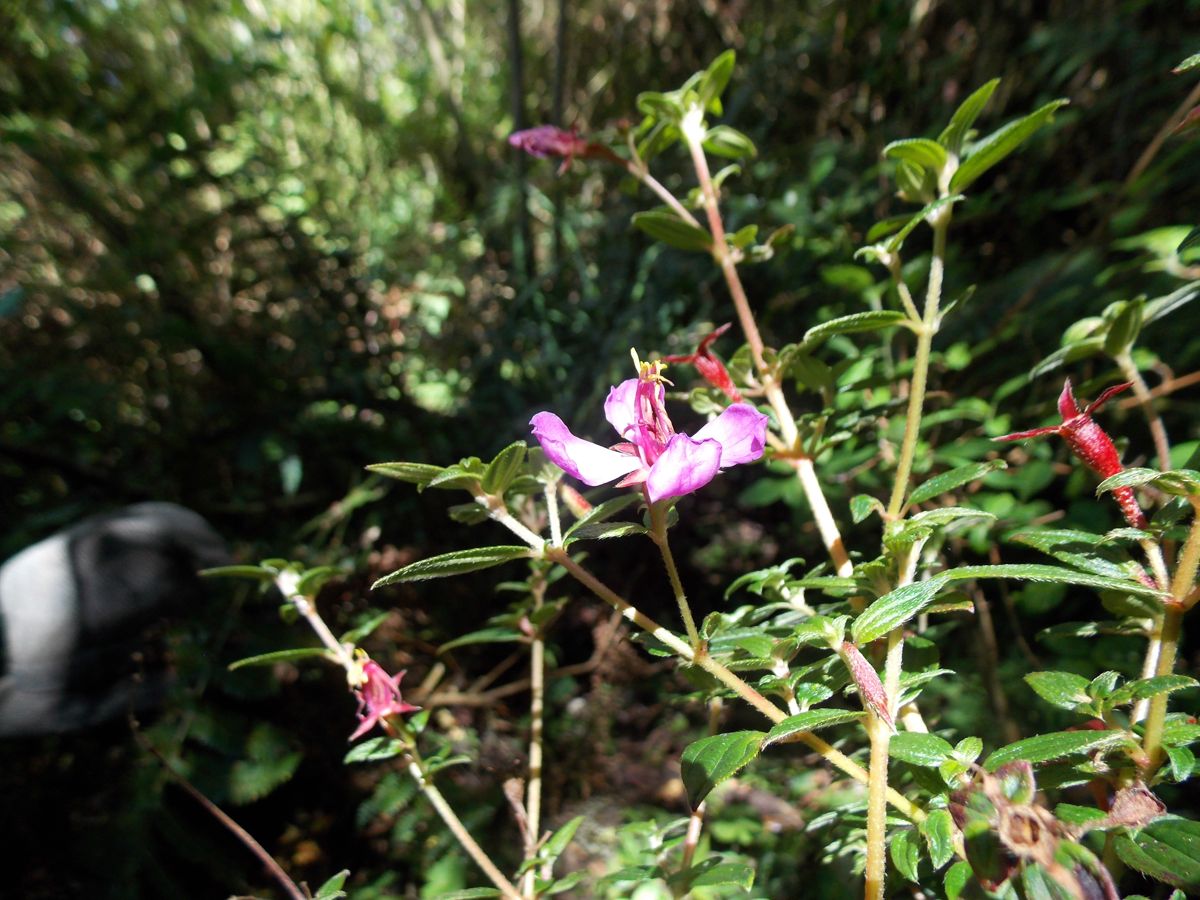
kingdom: Plantae
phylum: Tracheophyta
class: Magnoliopsida
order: Myrtales
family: Melastomataceae
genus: Monochaetum
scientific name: Monochaetum deppeanum
